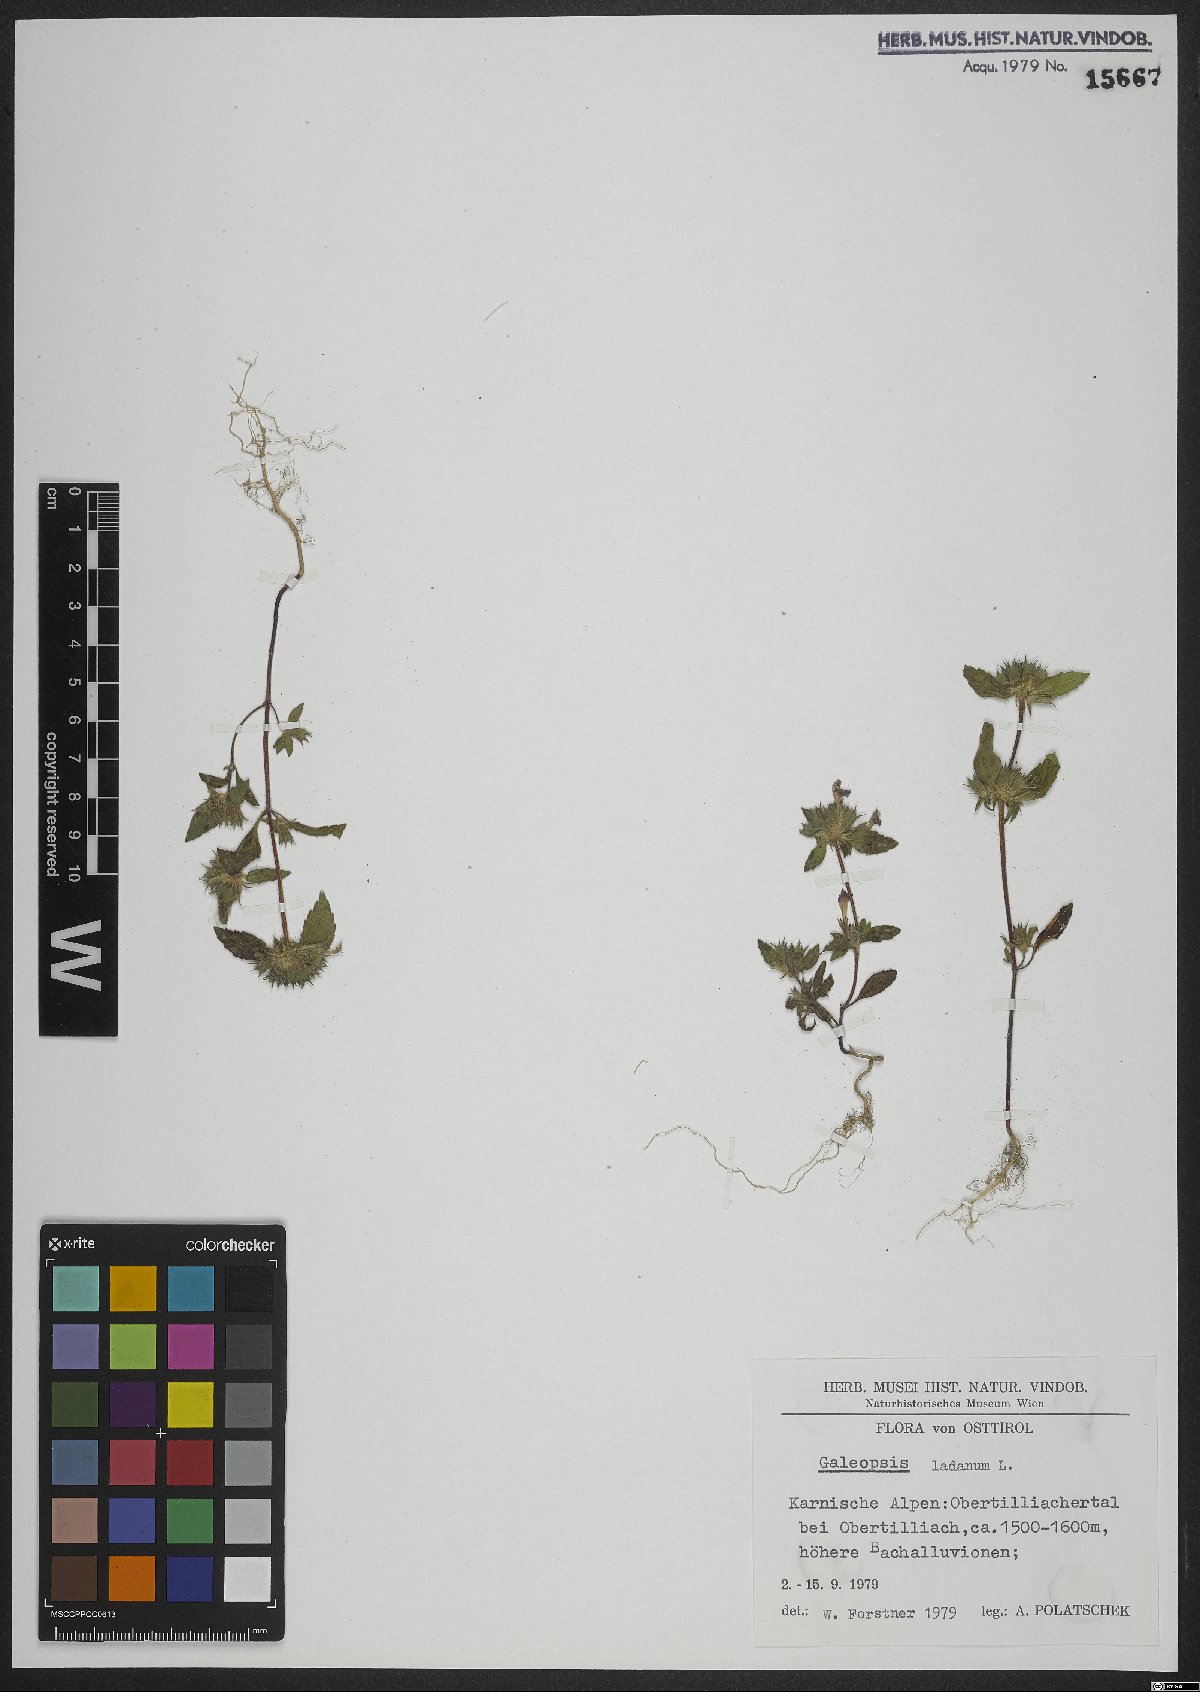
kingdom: Plantae
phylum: Tracheophyta
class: Magnoliopsida
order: Lamiales
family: Lamiaceae
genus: Galeopsis
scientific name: Galeopsis ladanum
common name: Broad-leaved hemp-nettle
